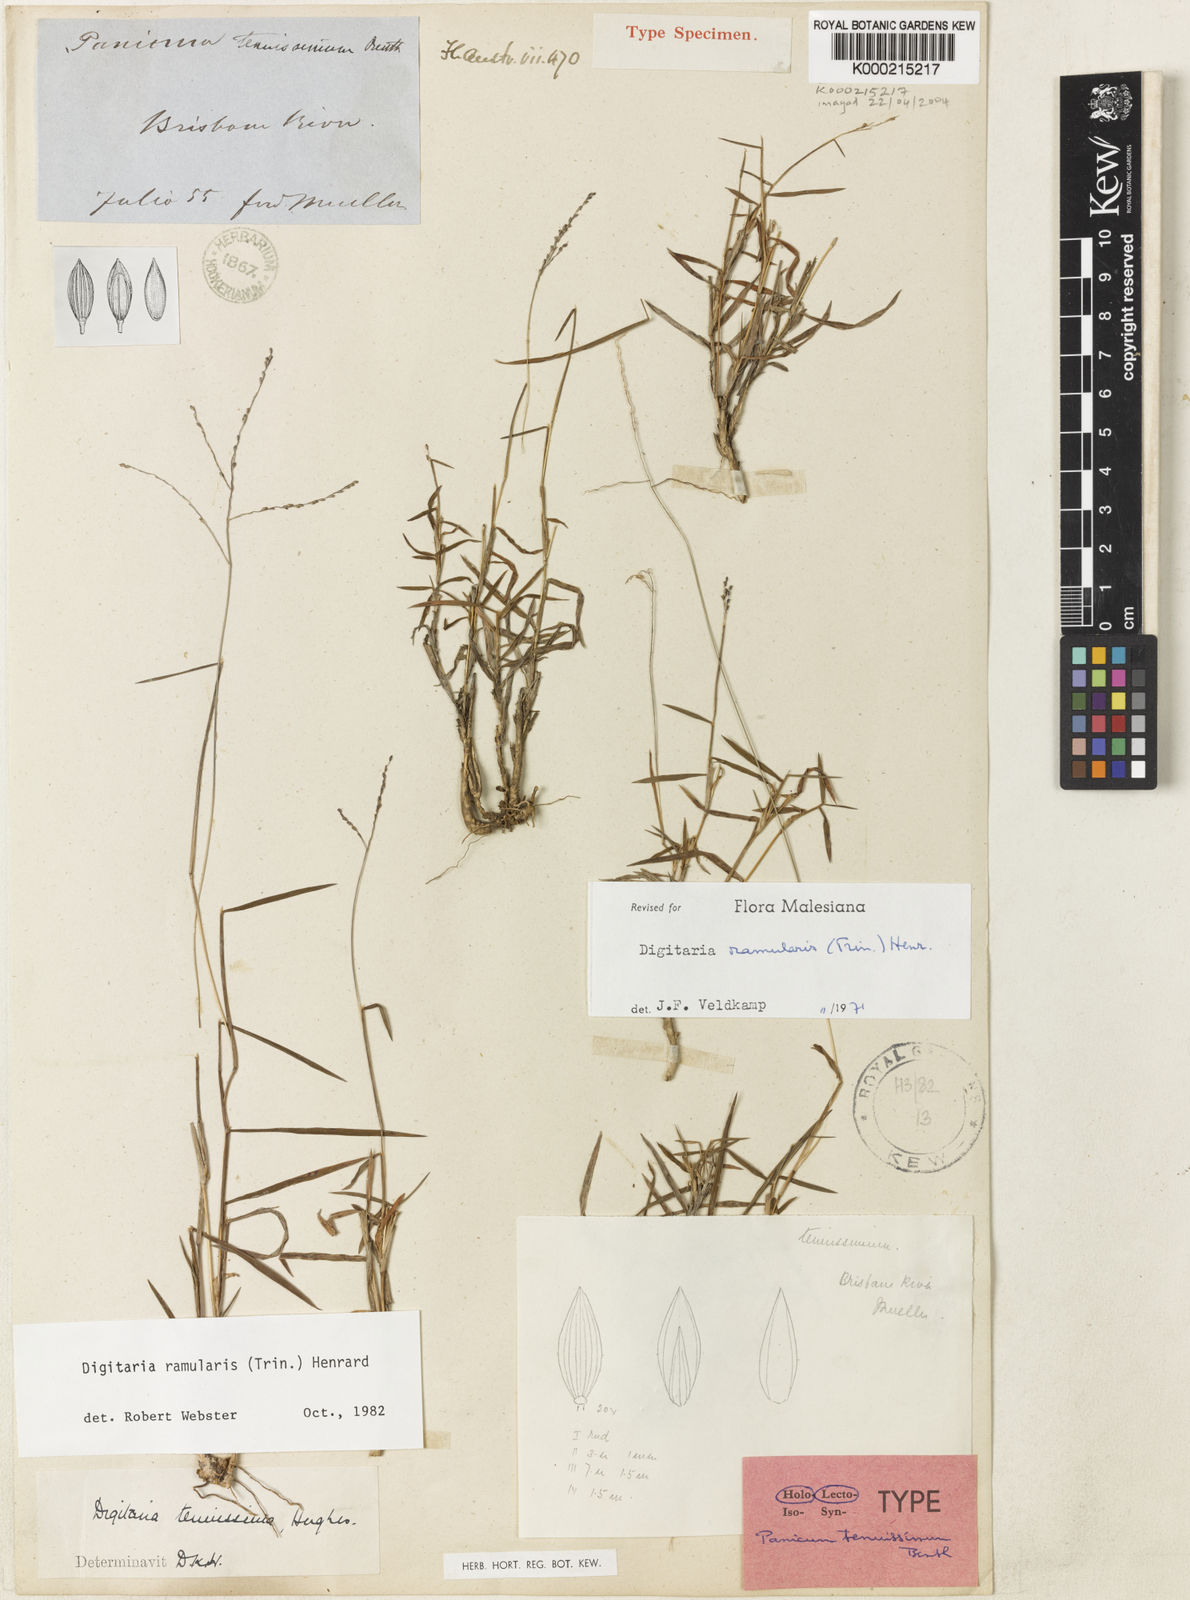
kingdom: Plantae
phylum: Tracheophyta
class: Liliopsida
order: Poales
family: Poaceae
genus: Digitaria
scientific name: Digitaria ramularis
